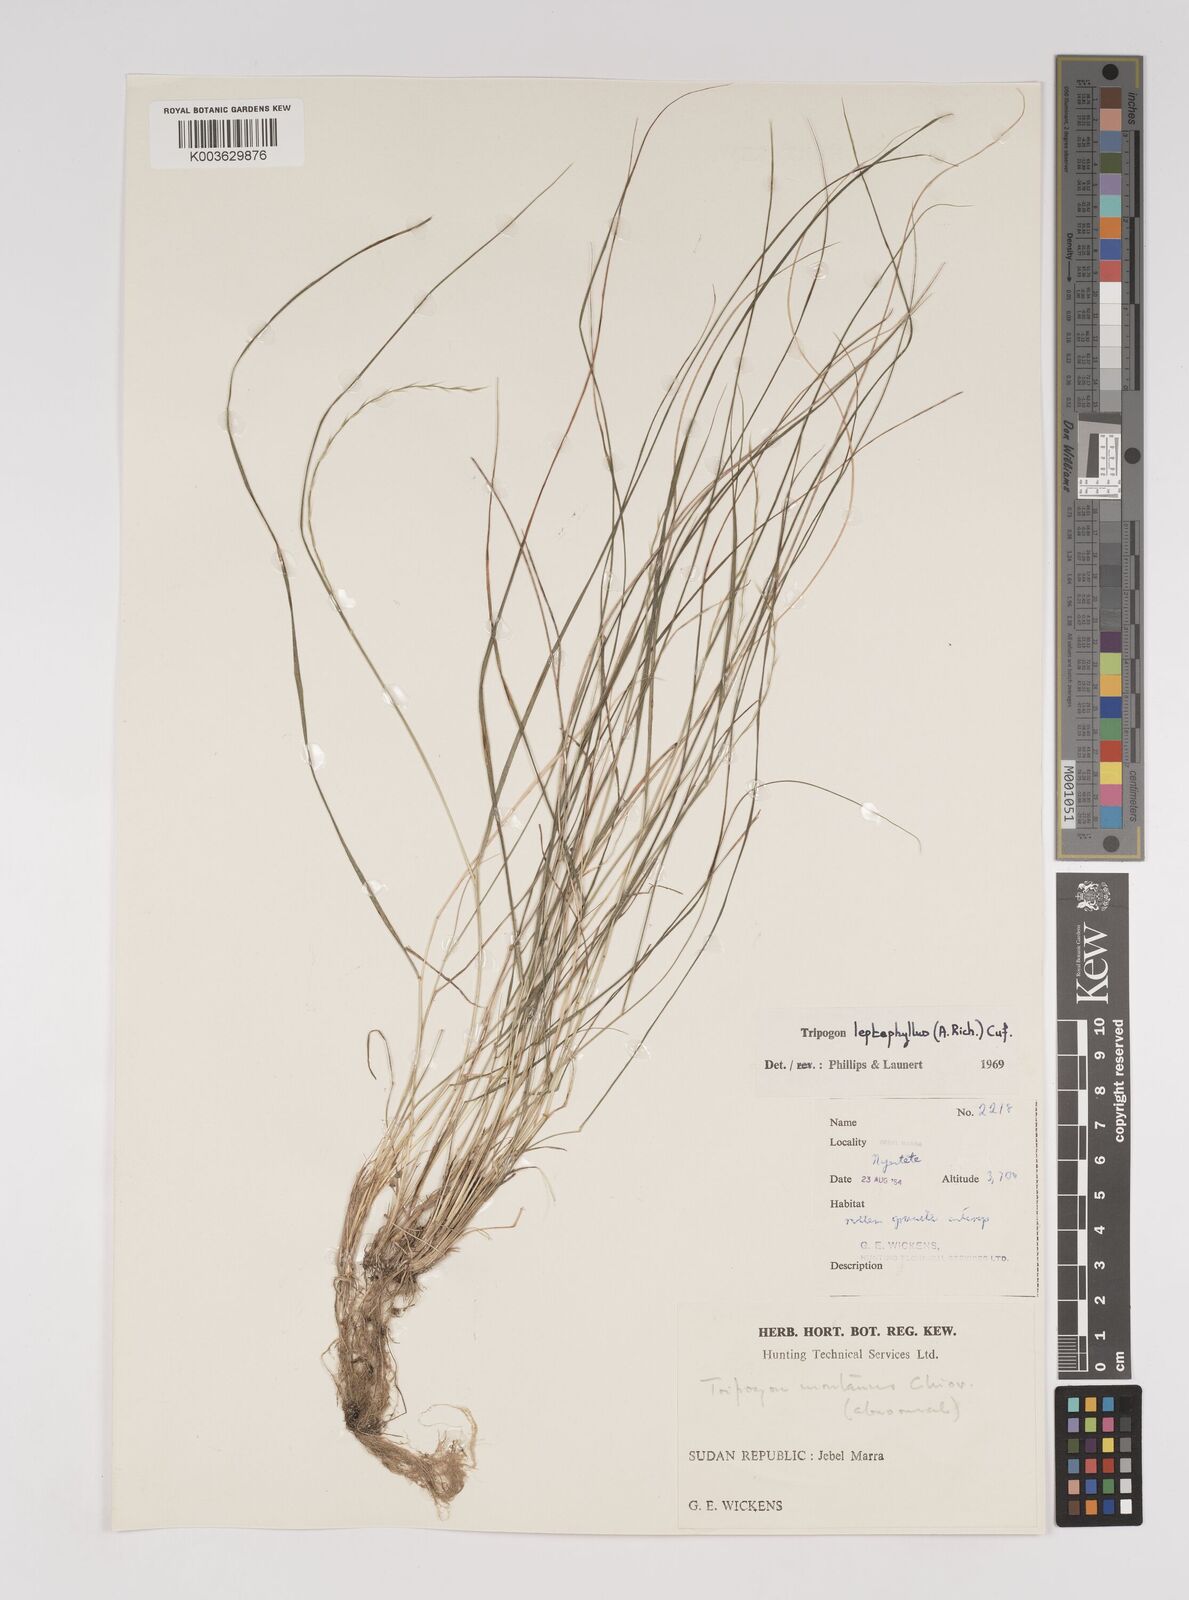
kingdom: Plantae
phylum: Tracheophyta
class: Liliopsida
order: Poales
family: Poaceae
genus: Tripogon
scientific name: Tripogon leptophyllus
